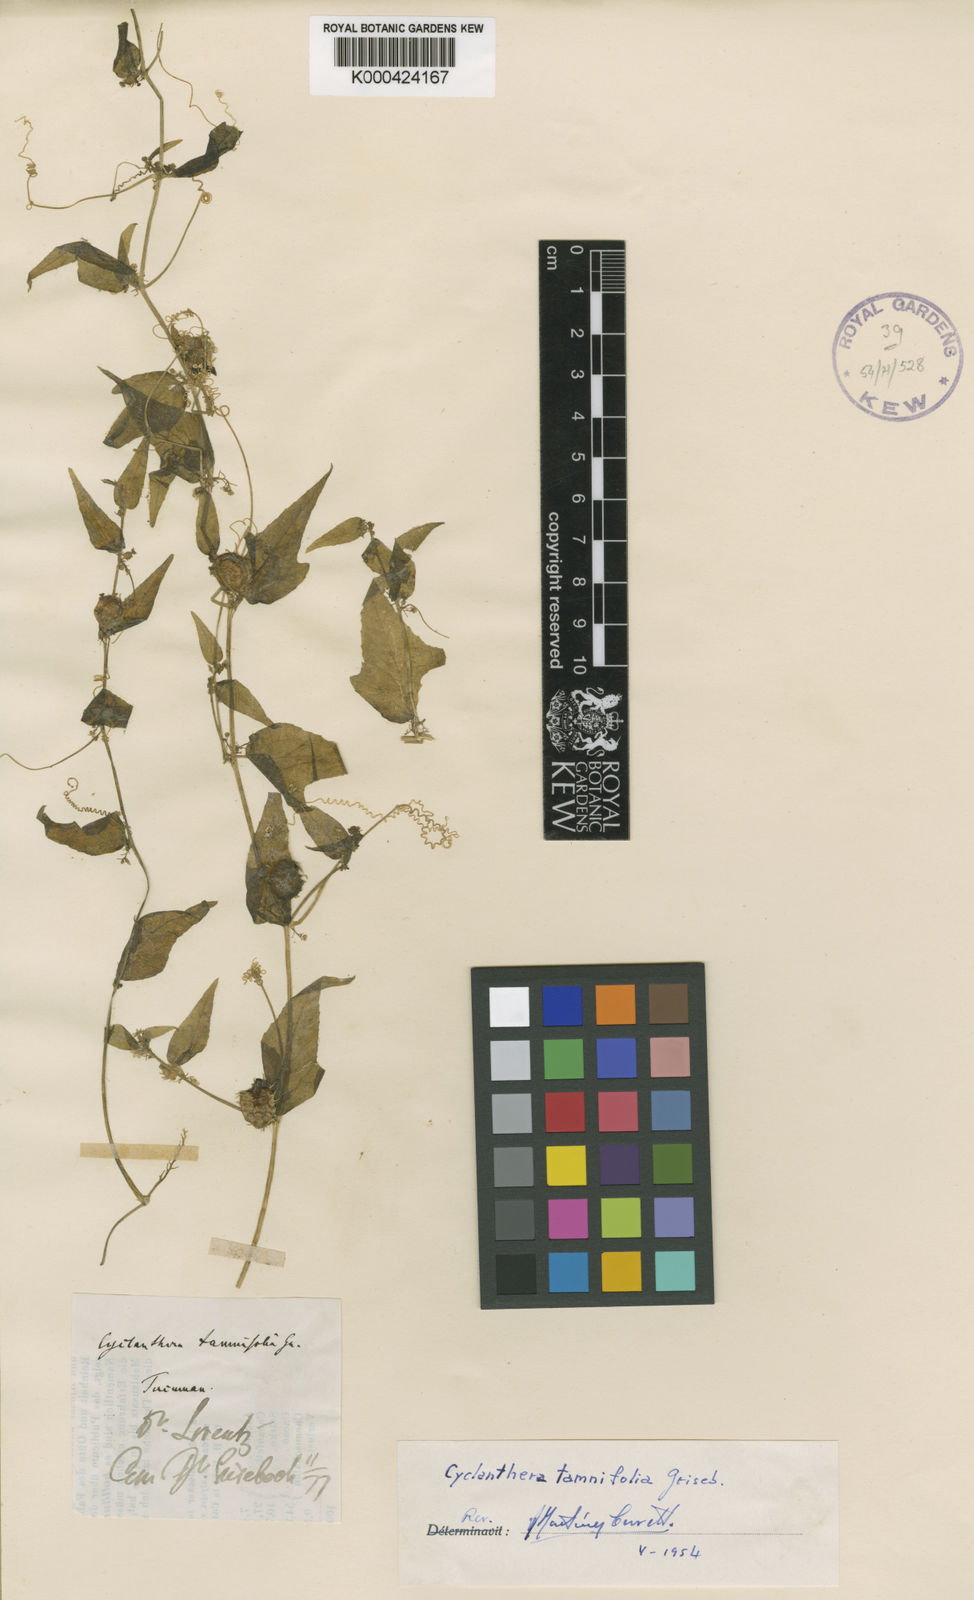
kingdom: Plantae
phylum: Tracheophyta
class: Magnoliopsida
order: Cucurbitales
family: Cucurbitaceae
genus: Cyclanthera
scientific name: Cyclanthera tamnifolia
